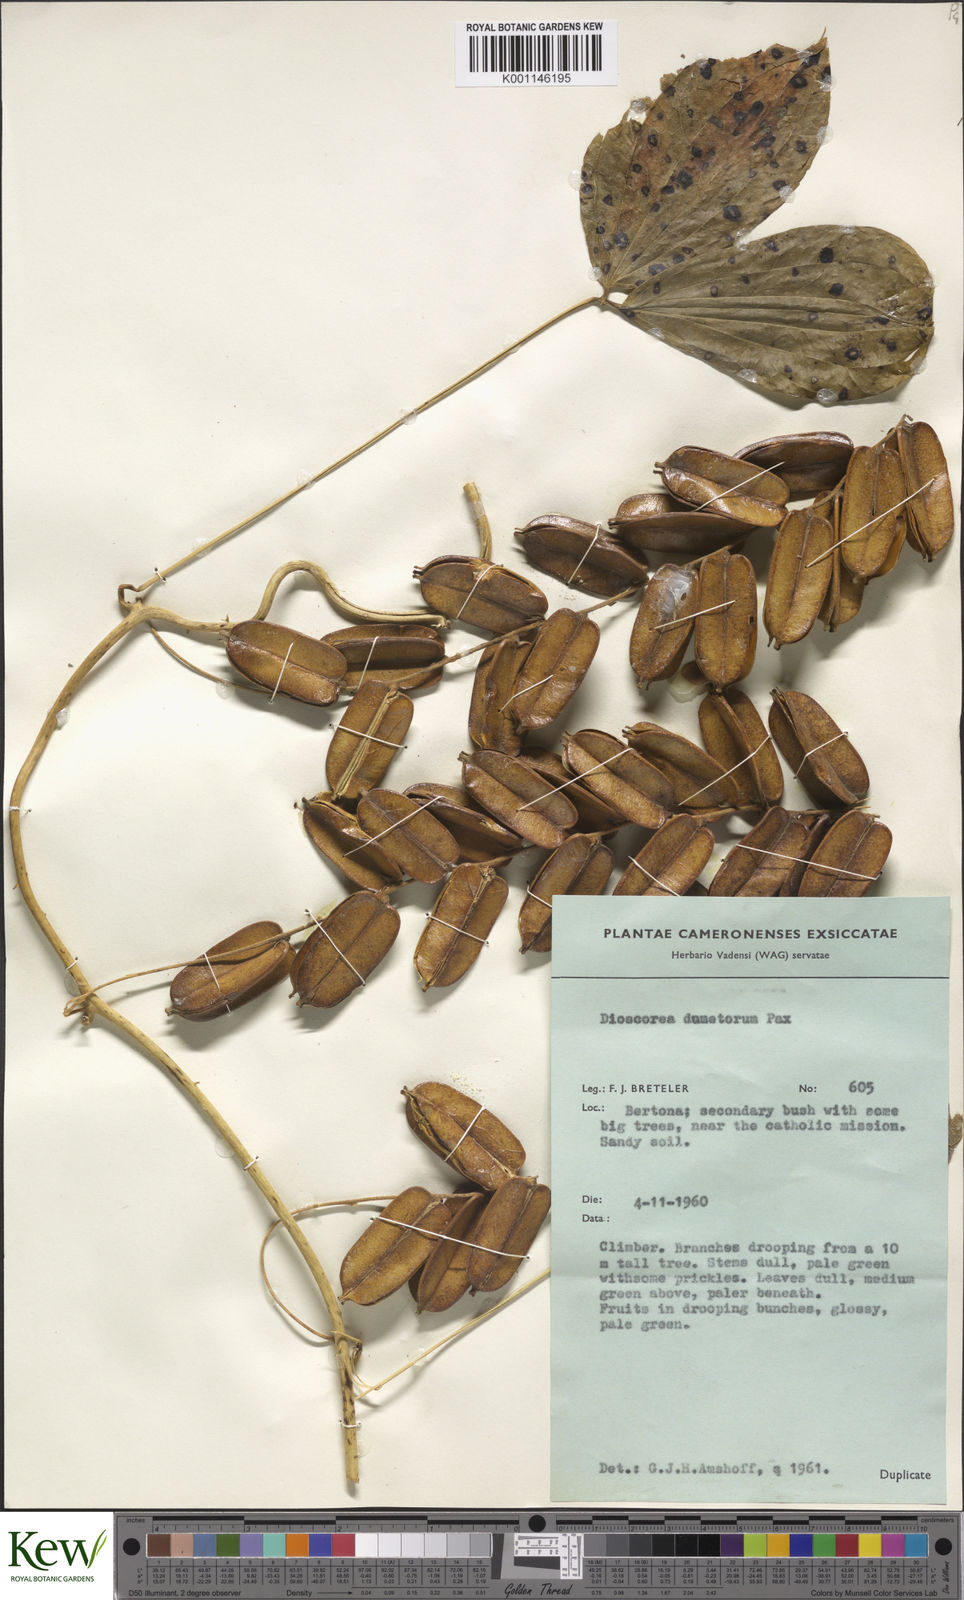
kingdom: Plantae
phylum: Tracheophyta
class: Liliopsida
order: Dioscoreales
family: Dioscoreaceae
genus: Dioscorea
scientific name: Dioscorea dumetorum
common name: African bitter yam
